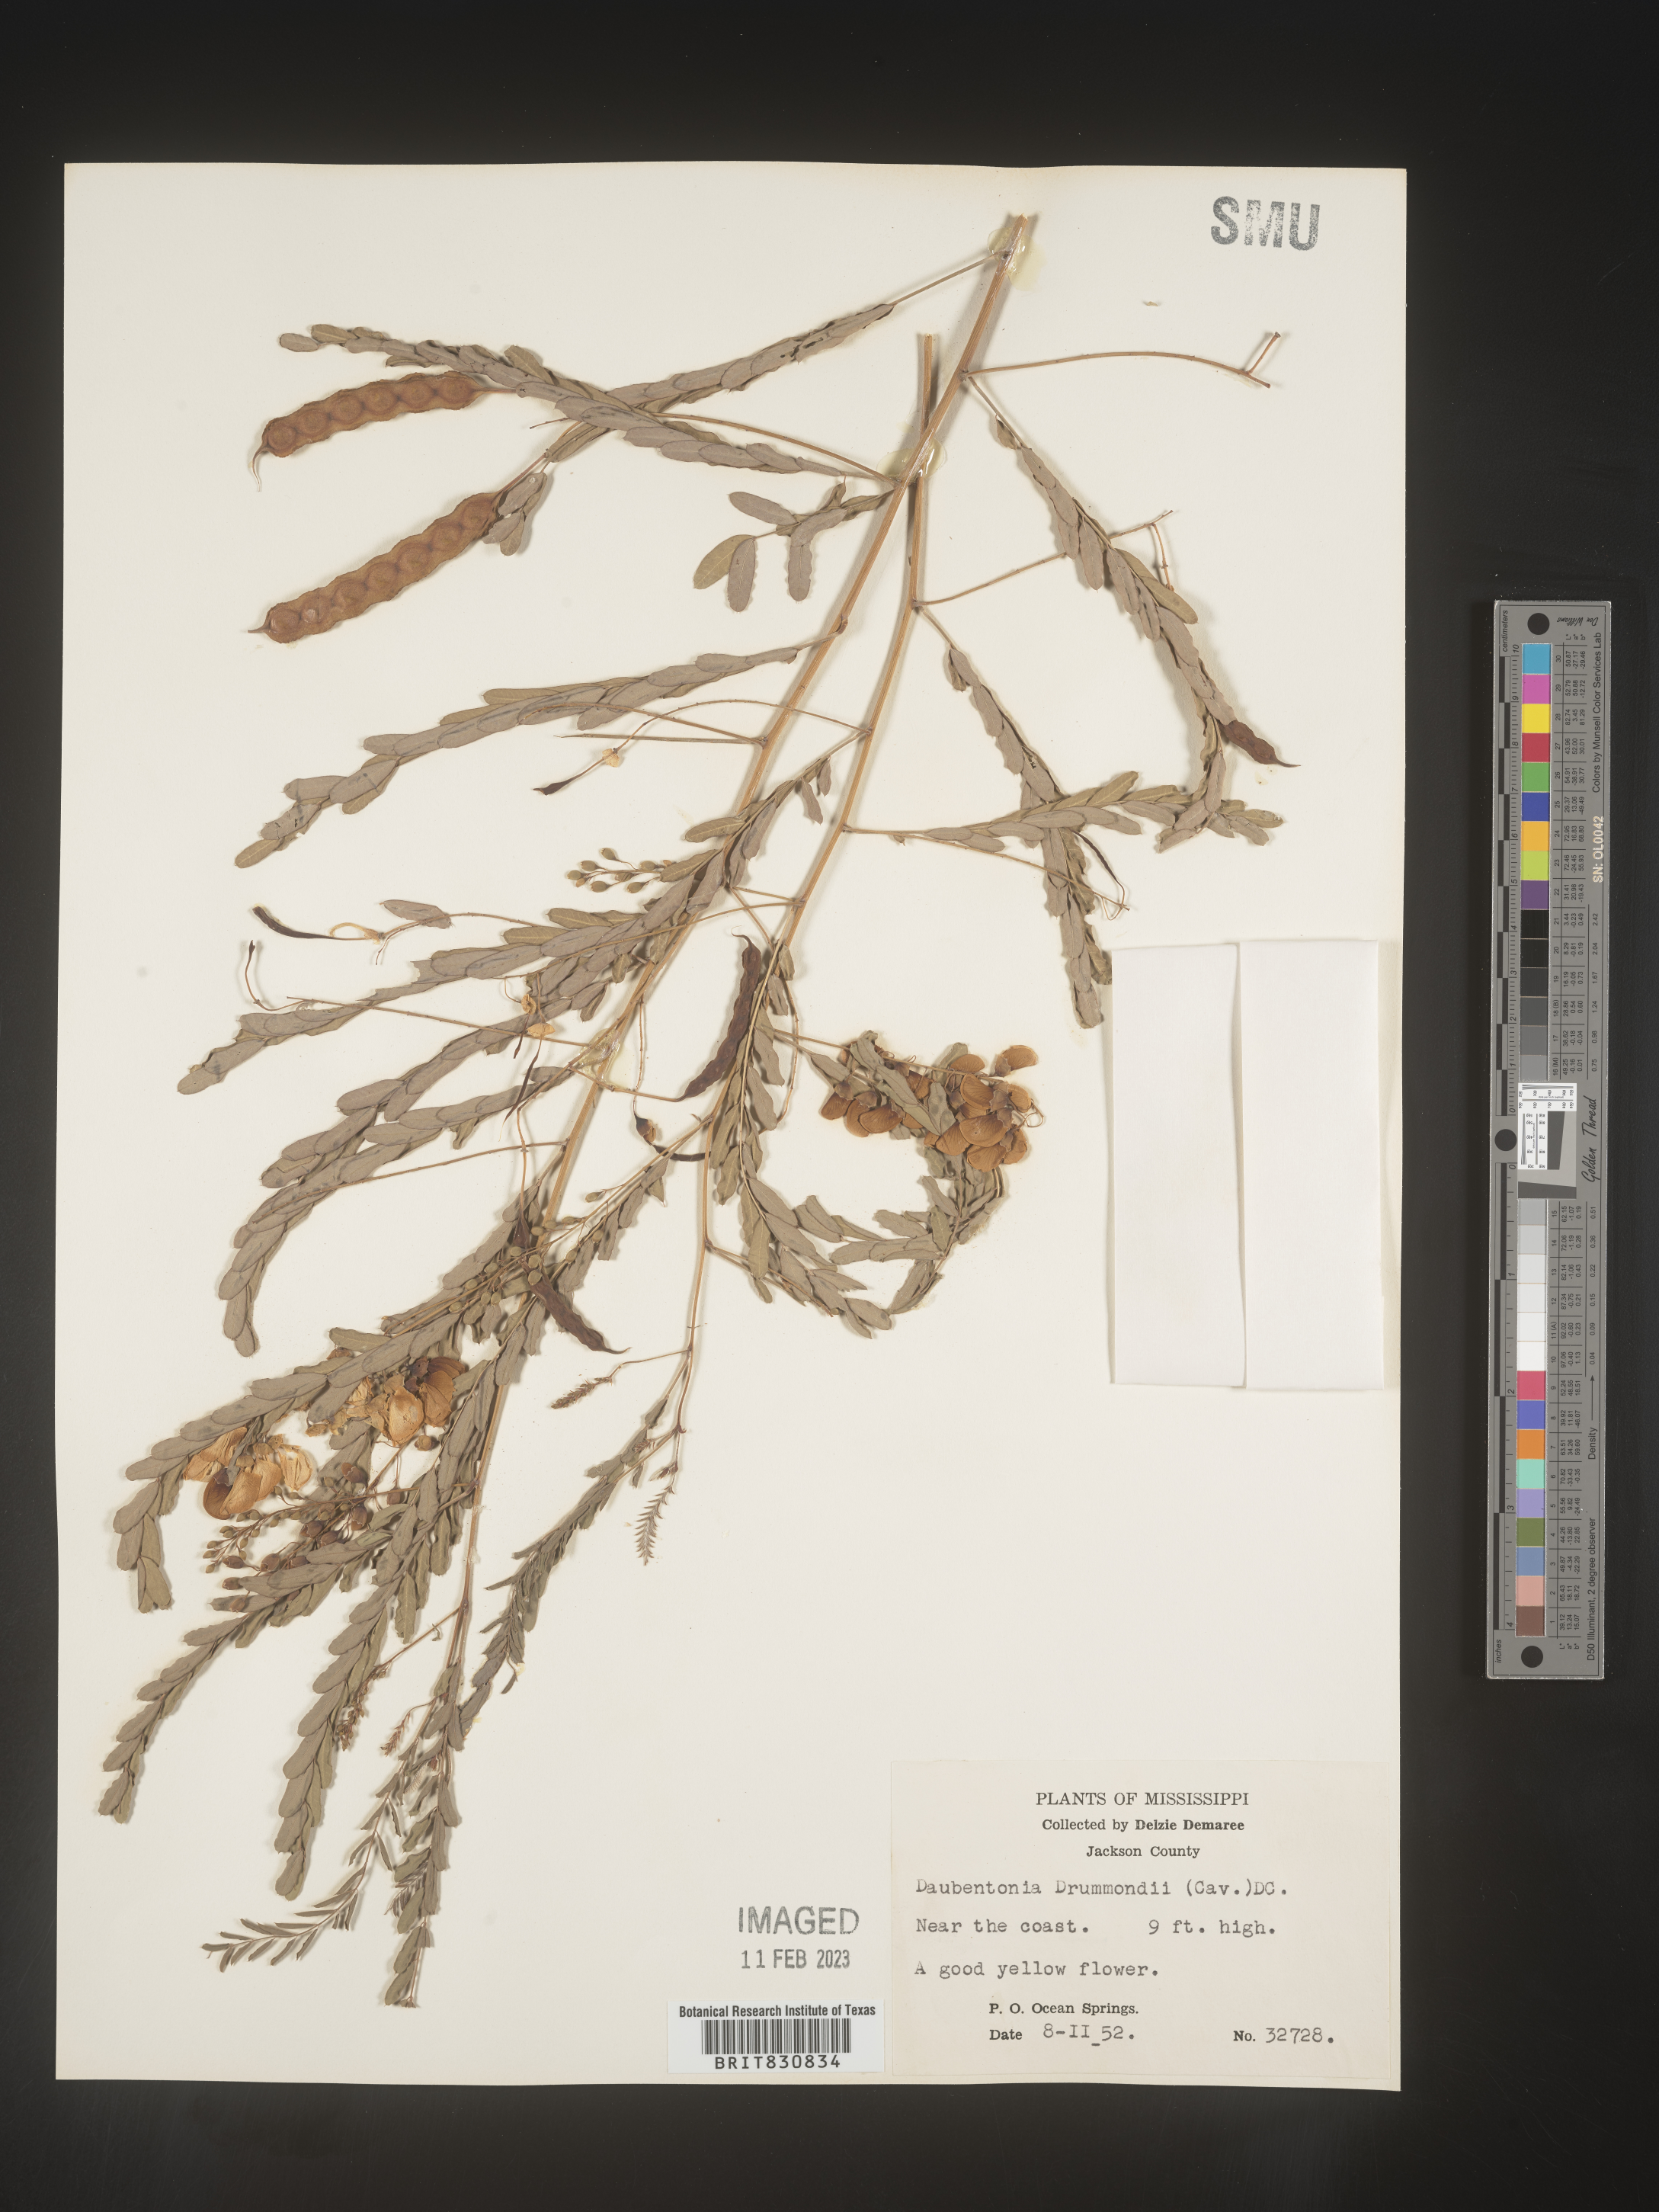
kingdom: Plantae
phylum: Tracheophyta
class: Magnoliopsida
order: Fabales
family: Fabaceae
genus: Sesbania
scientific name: Sesbania drummondii
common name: Poison-bean
